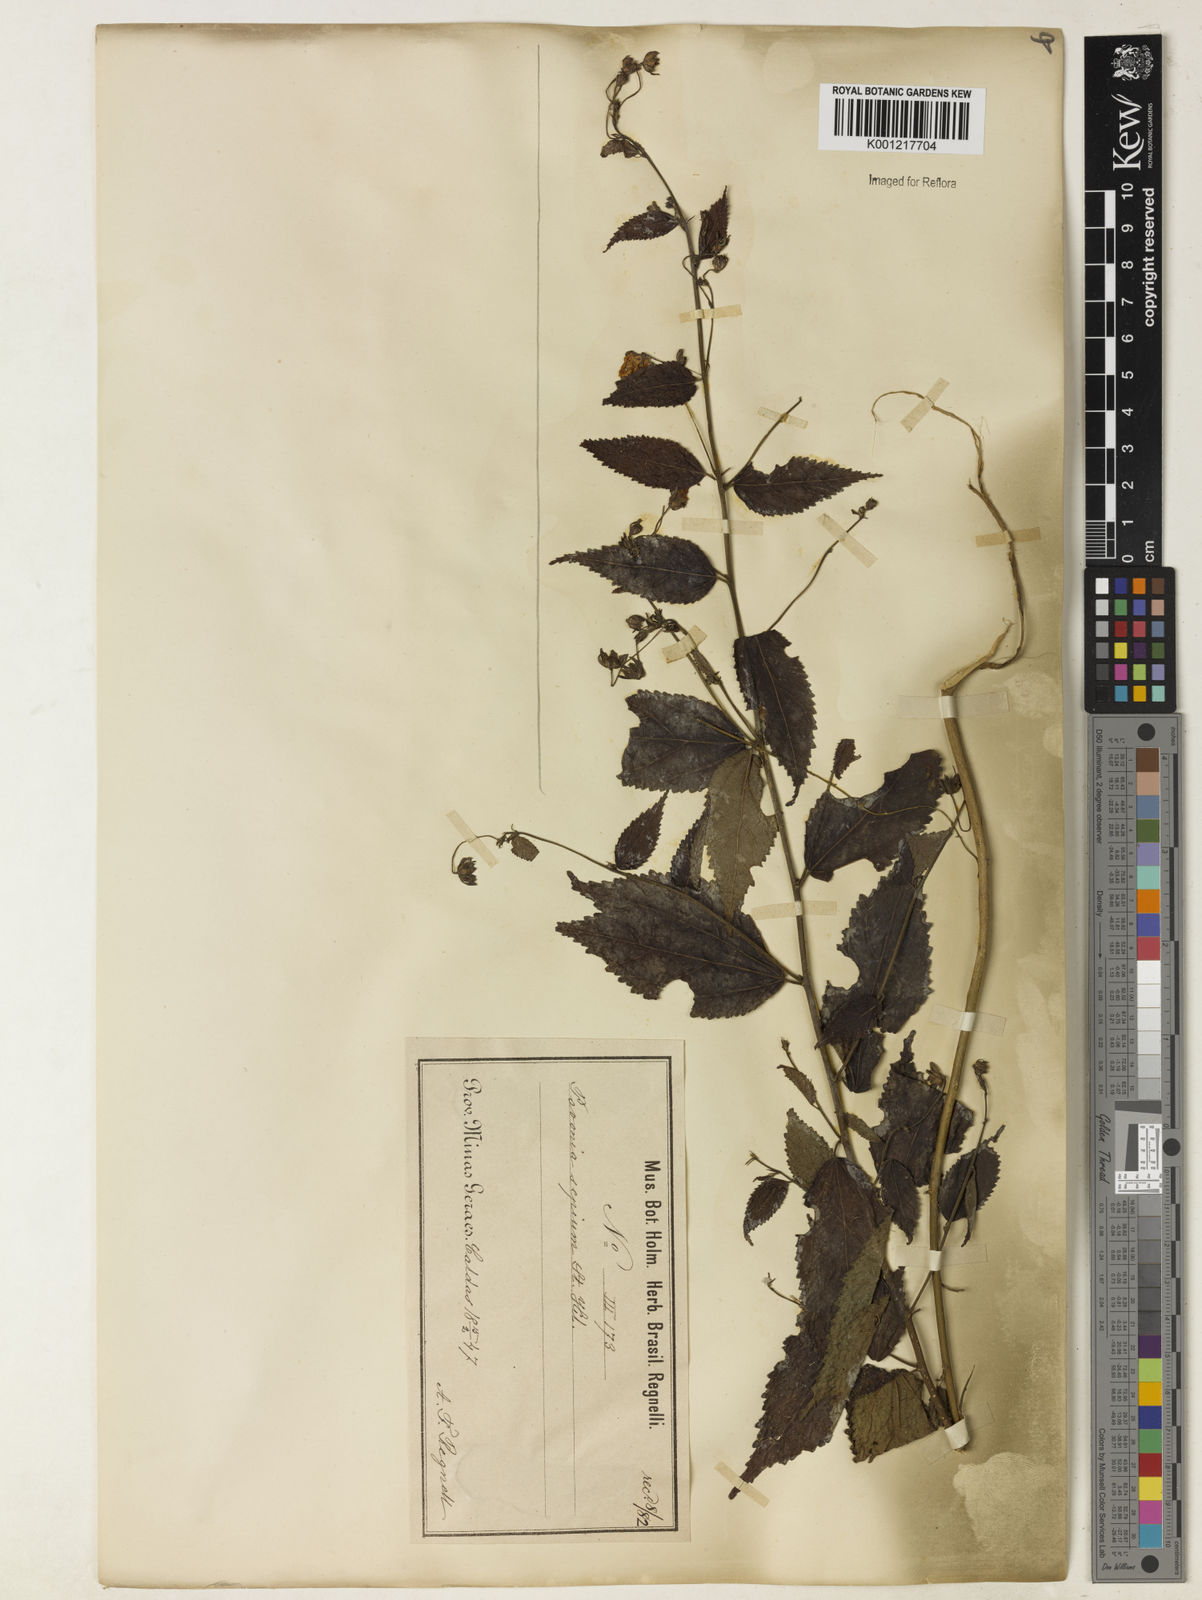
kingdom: Plantae
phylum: Tracheophyta
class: Magnoliopsida
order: Malvales
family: Malvaceae
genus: Pavonia
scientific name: Pavonia sepium
